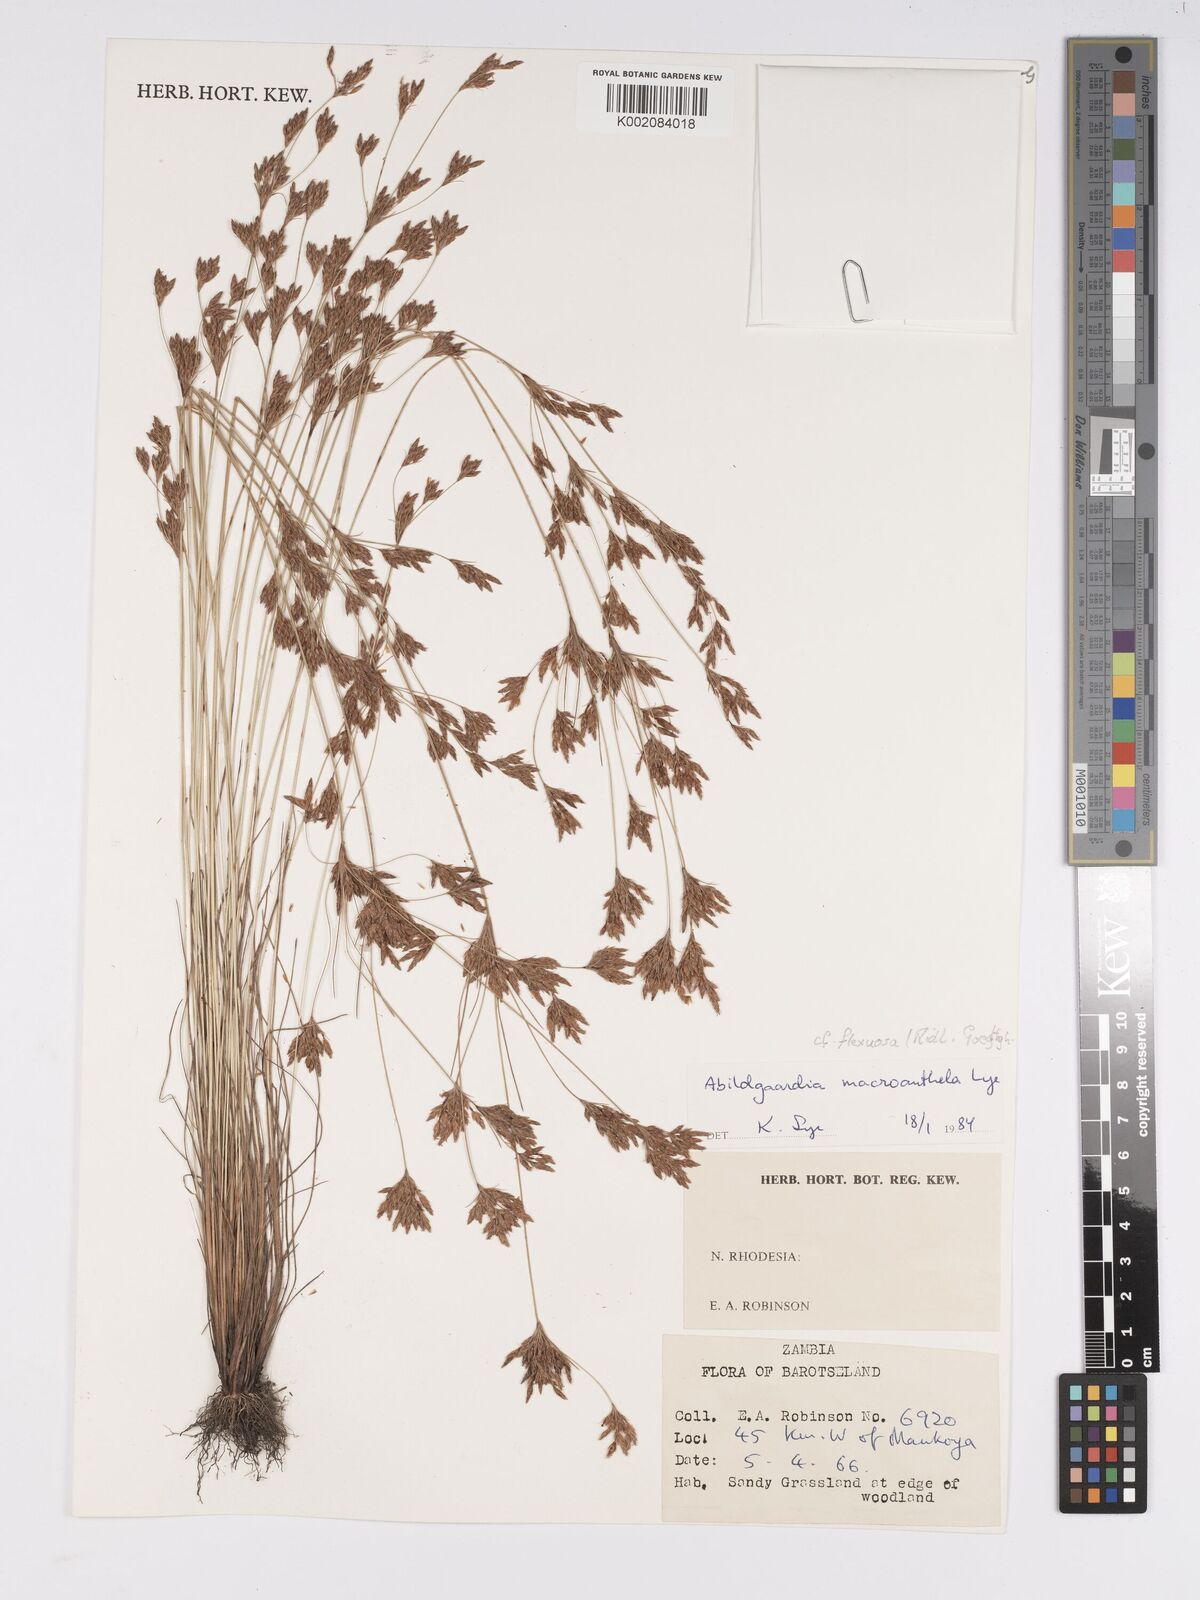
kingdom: Plantae
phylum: Tracheophyta
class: Liliopsida
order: Poales
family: Cyperaceae
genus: Bulbostylis
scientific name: Bulbostylis flexuosa
